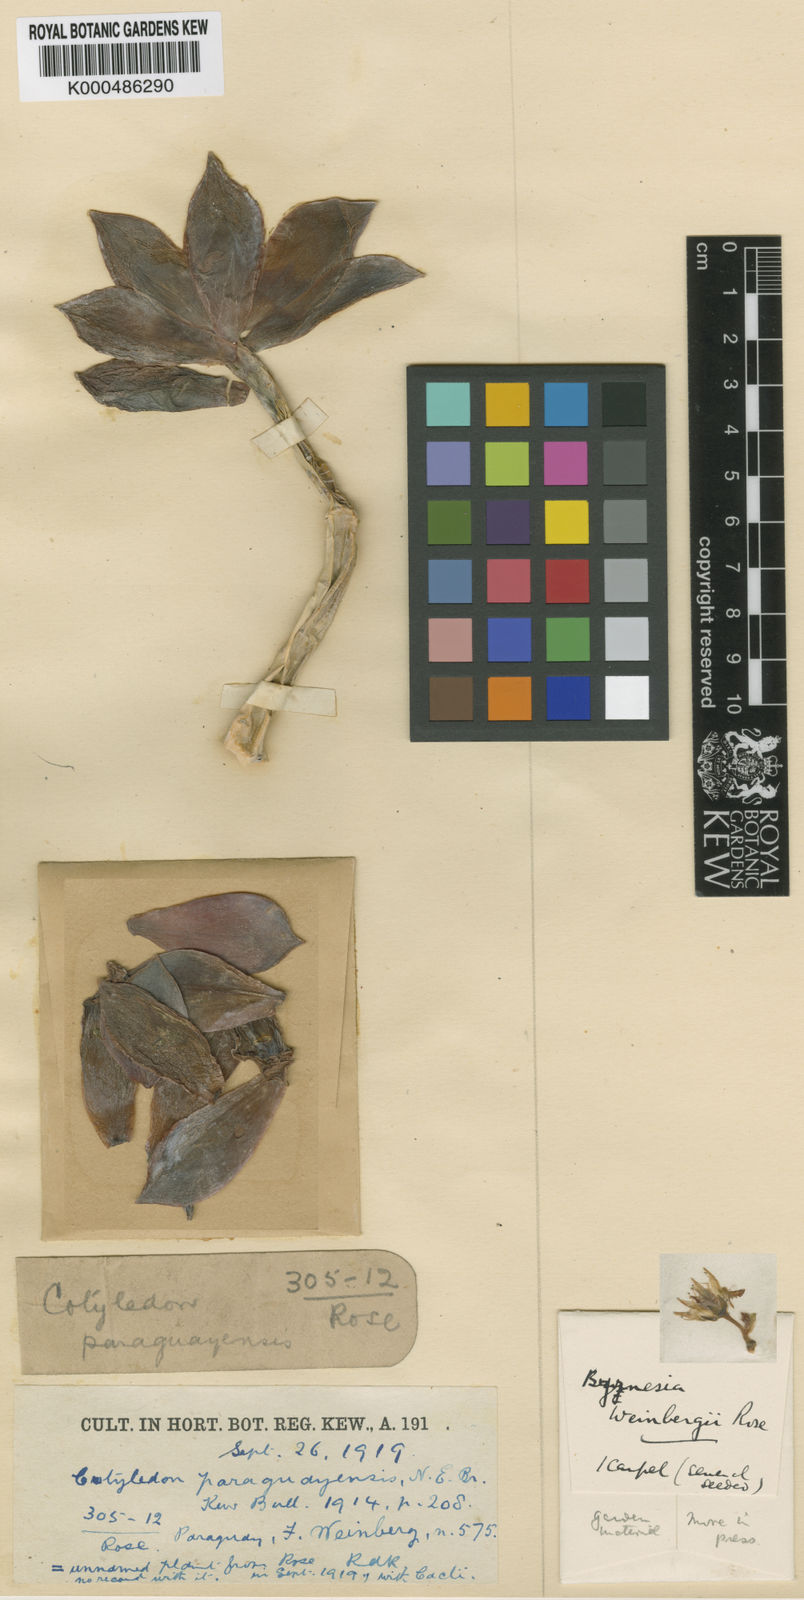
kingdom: Plantae
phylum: Tracheophyta
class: Magnoliopsida
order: Saxifragales
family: Crassulaceae
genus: Graptopetalum
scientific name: Graptopetalum paraguayense
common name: Mother-of-pearl-plant
